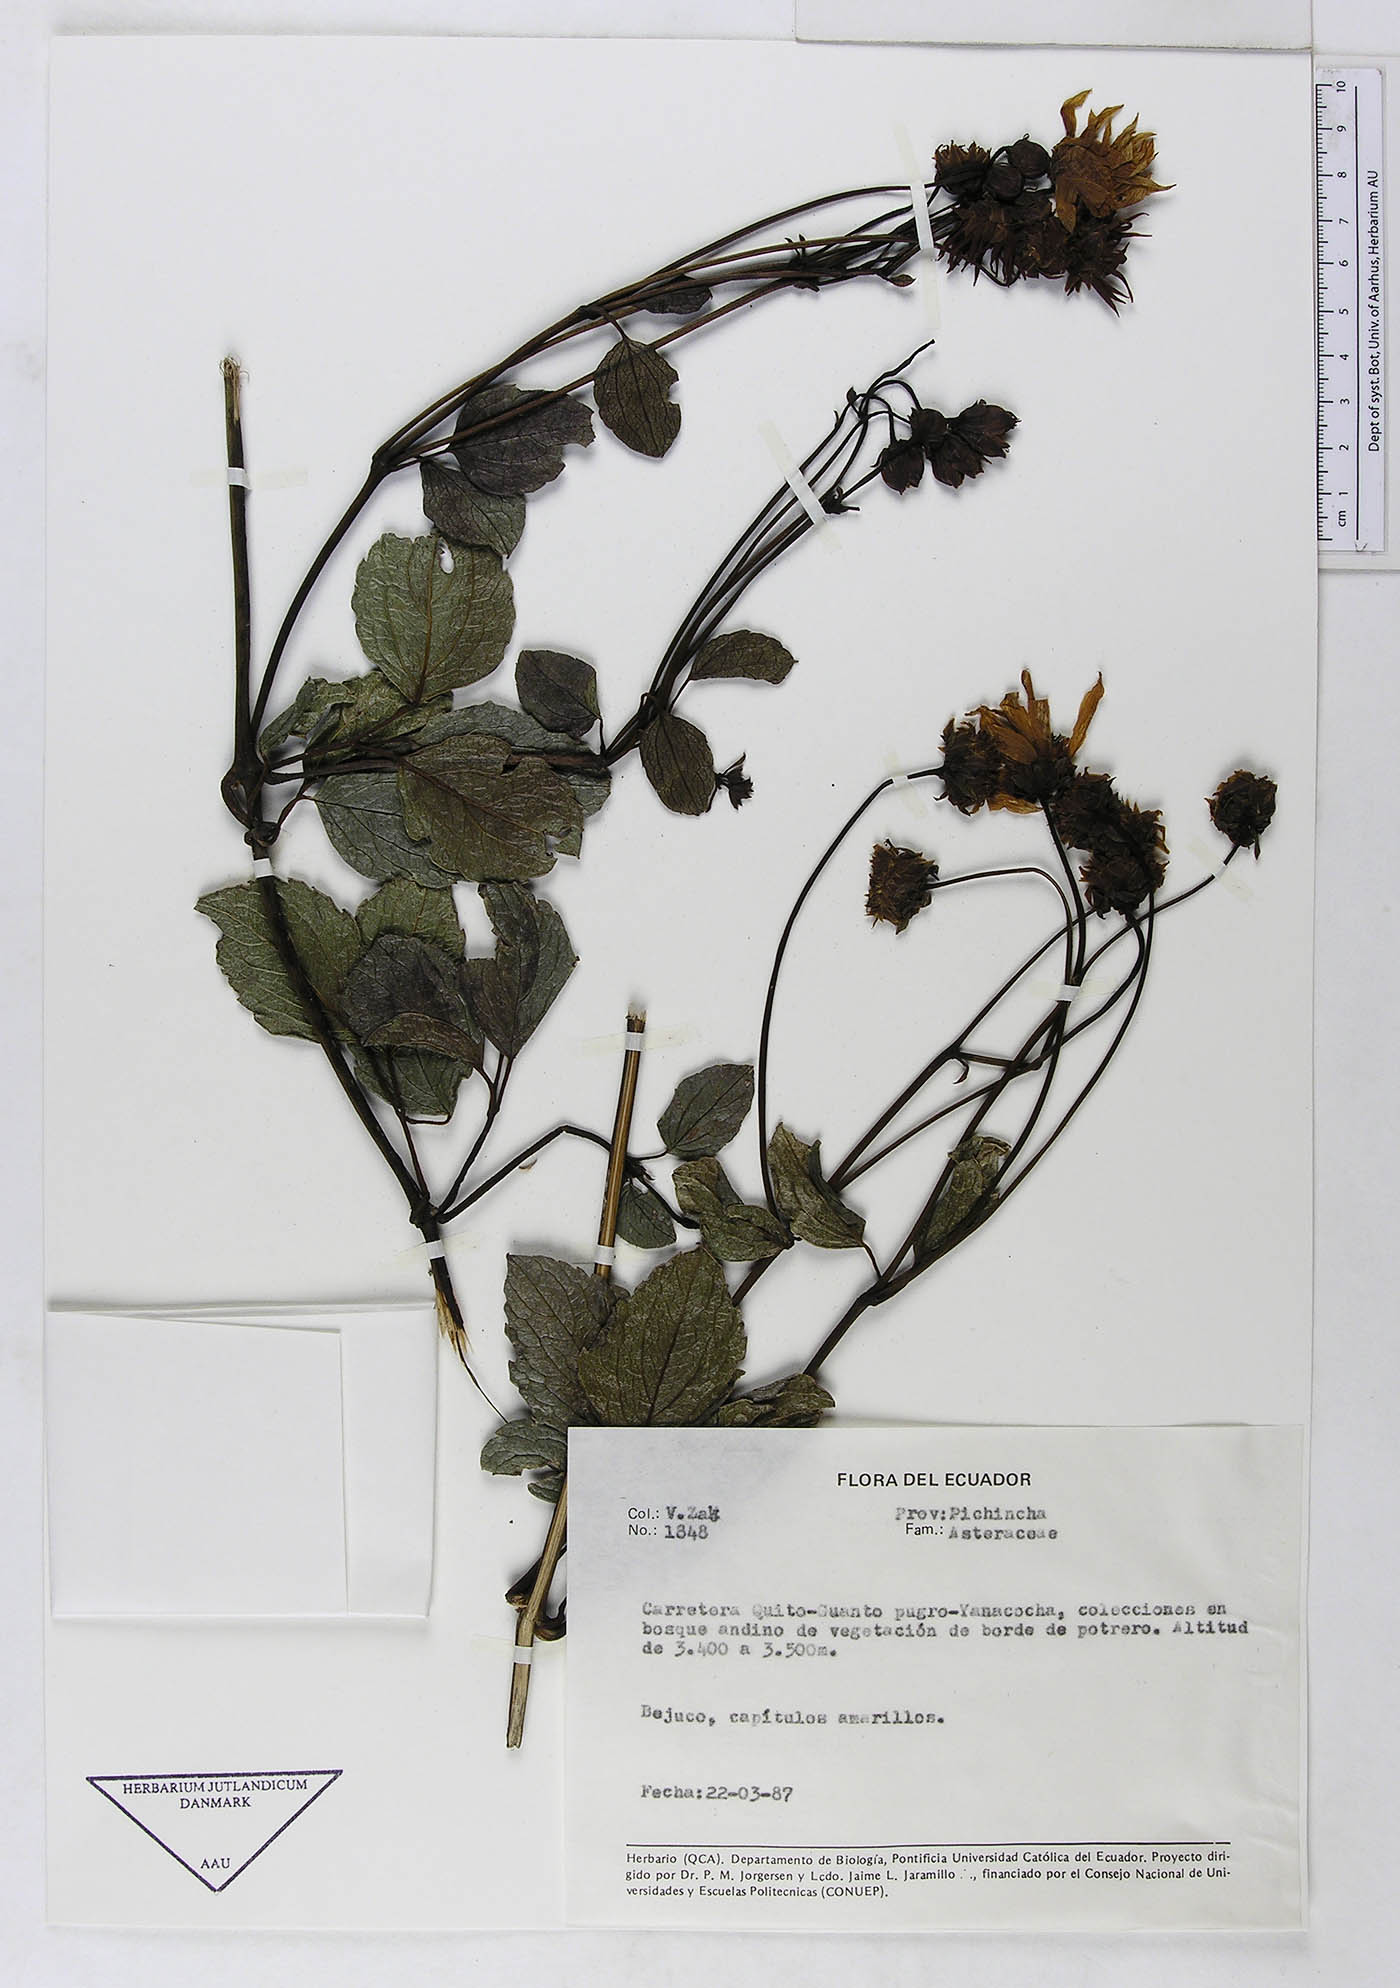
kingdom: Plantae
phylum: Tracheophyta
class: Magnoliopsida
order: Asterales
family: Asteraceae
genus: Ericentrodea
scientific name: Ericentrodea corazonensis
